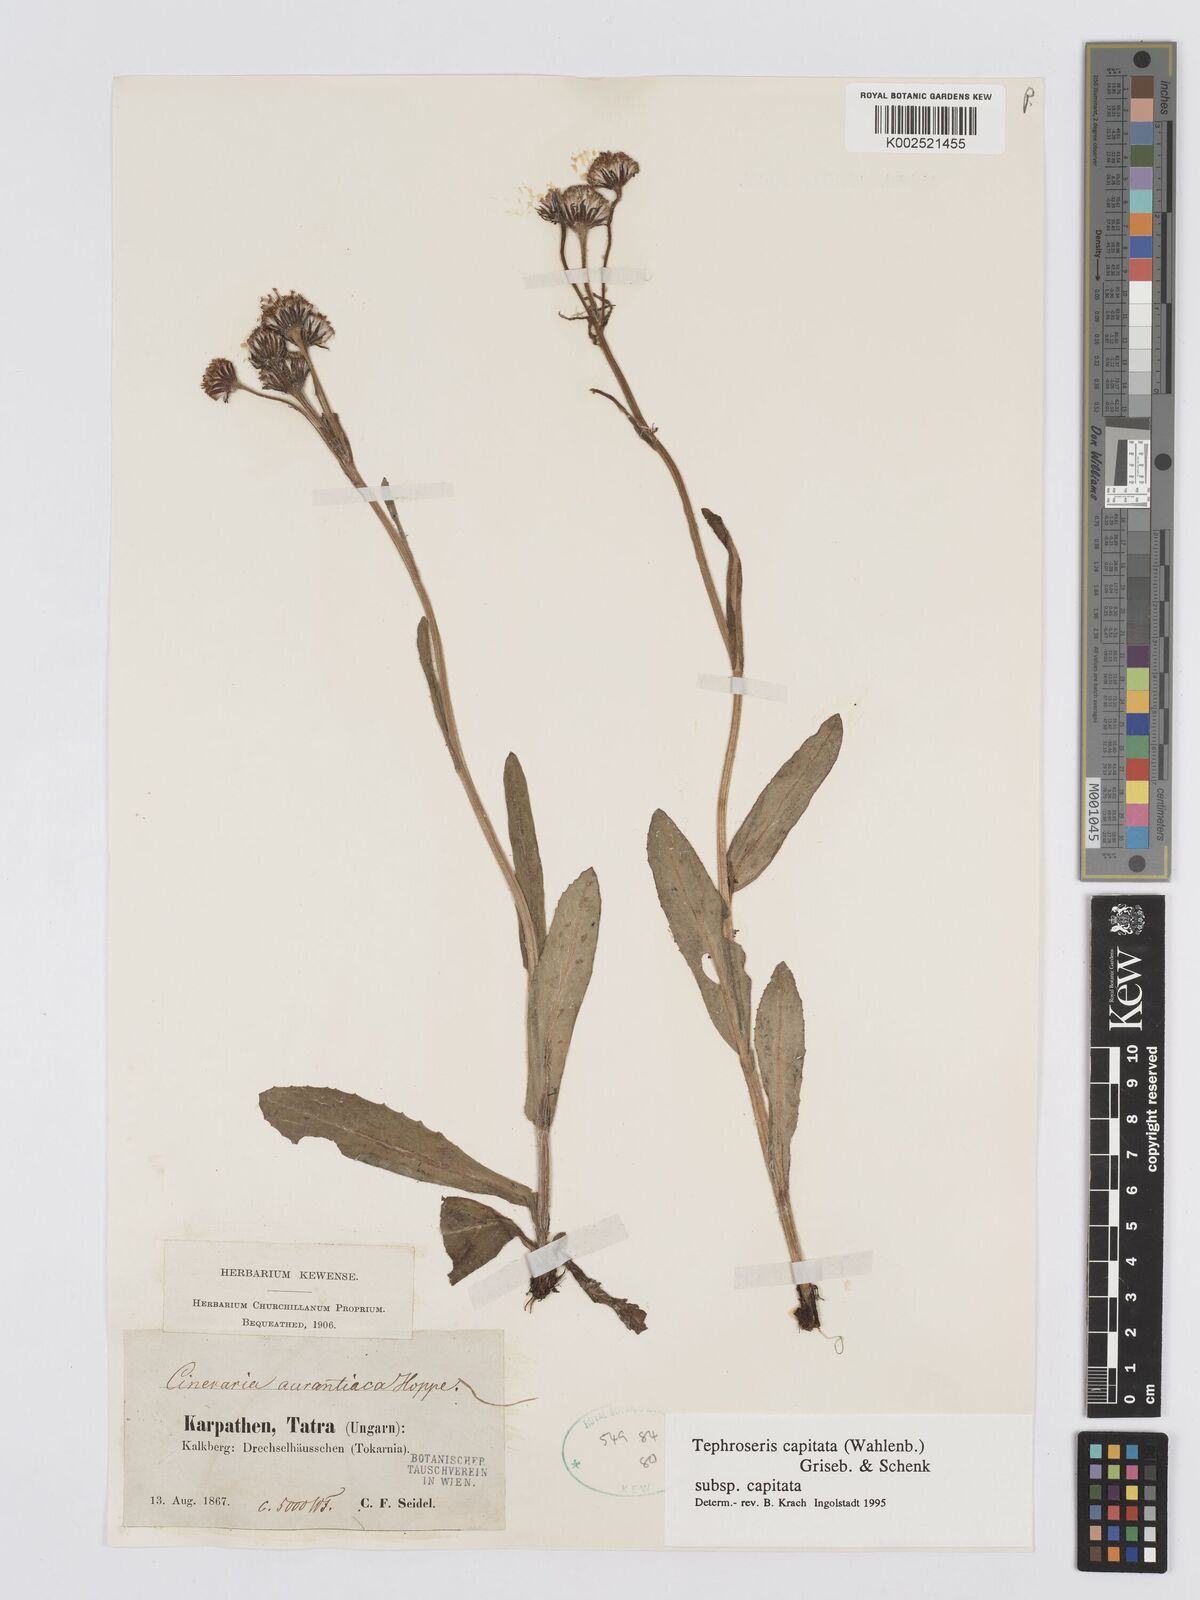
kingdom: Plantae
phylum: Tracheophyta
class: Magnoliopsida
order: Asterales
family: Asteraceae
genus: Tephroseris
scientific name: Tephroseris integrifolia
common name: Field fleawort
